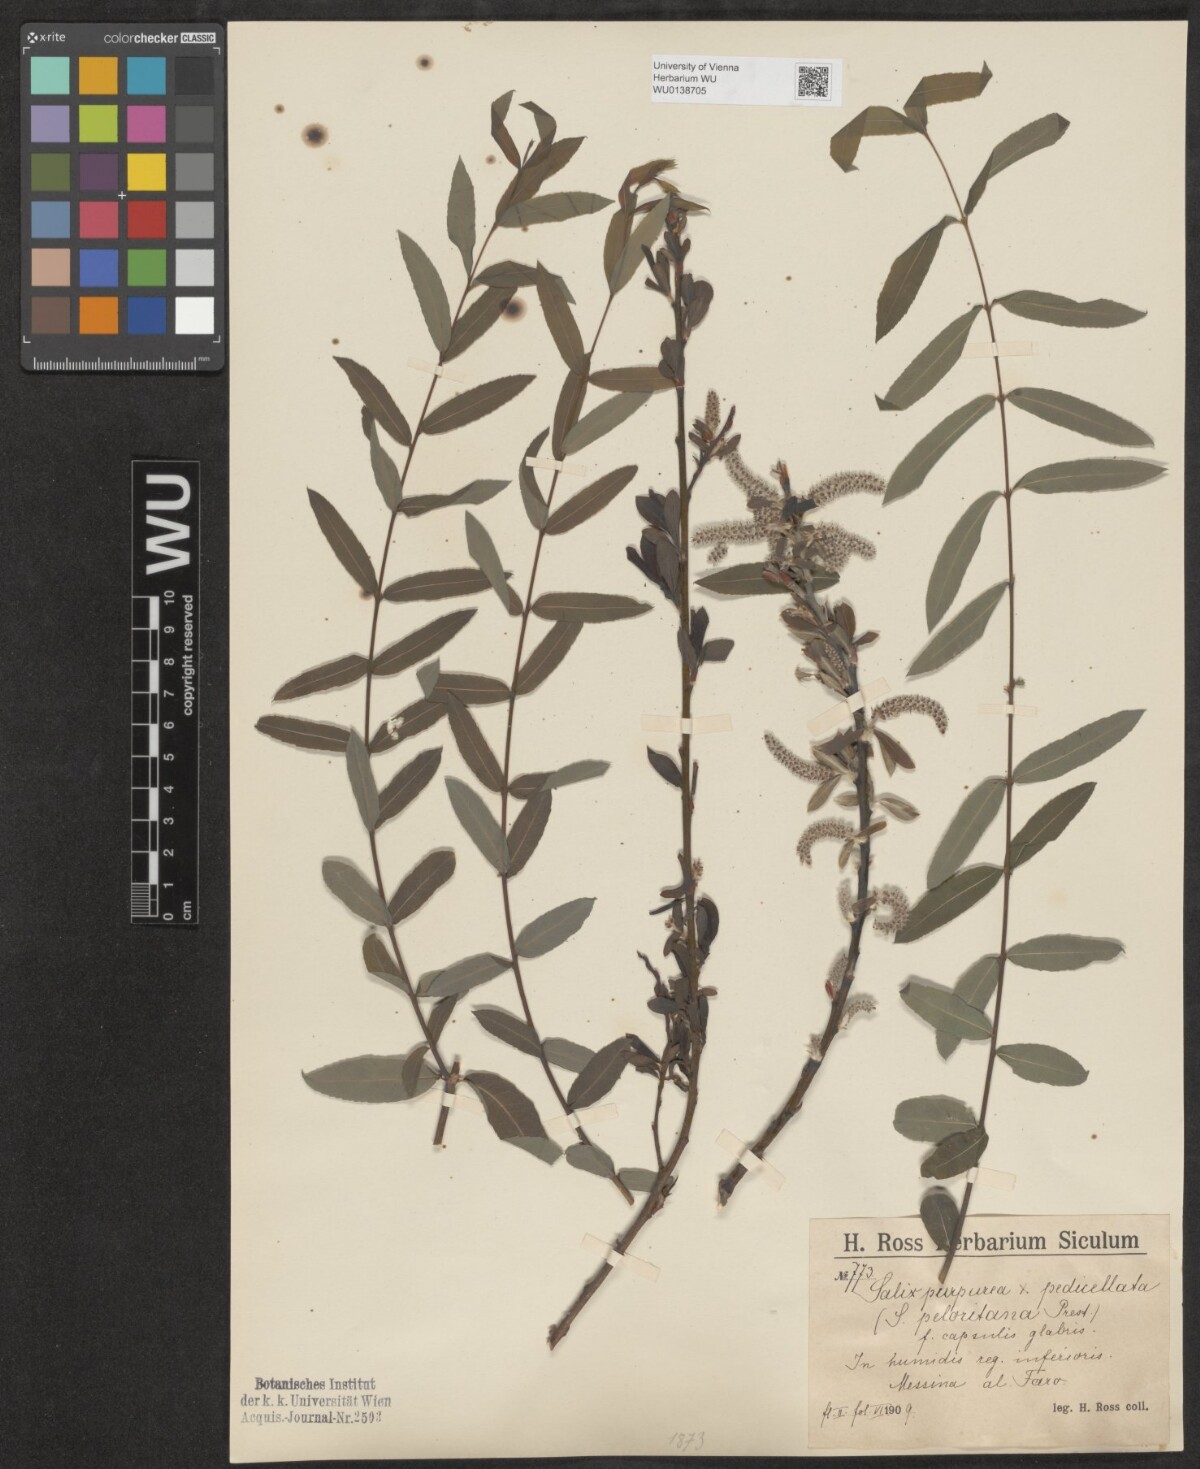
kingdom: Plantae
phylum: Tracheophyta
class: Magnoliopsida
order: Malpighiales
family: Salicaceae
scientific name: Salicaceae
